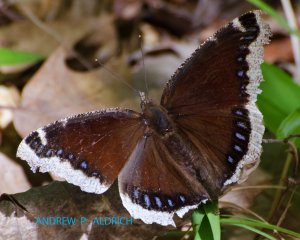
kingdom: Animalia
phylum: Arthropoda
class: Insecta
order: Lepidoptera
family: Nymphalidae
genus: Nymphalis
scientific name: Nymphalis antiopa
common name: Mourning Cloak
